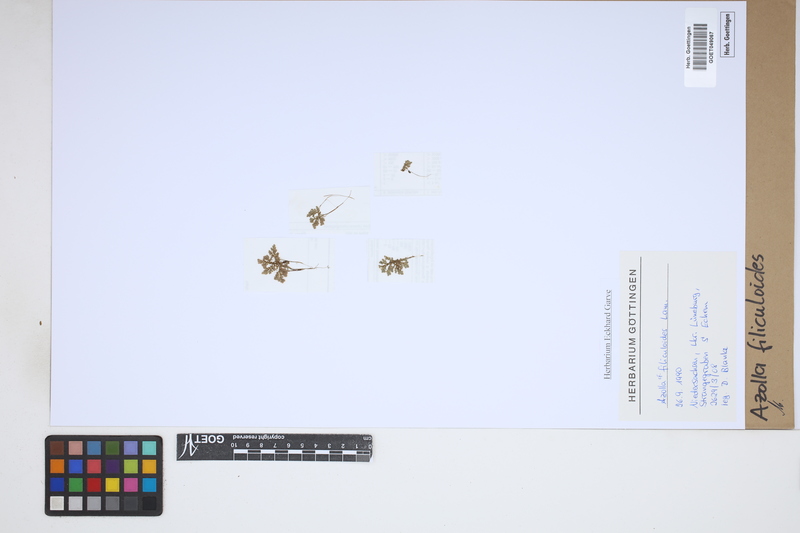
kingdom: Plantae
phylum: Tracheophyta
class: Polypodiopsida
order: Salviniales
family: Salviniaceae
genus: Azolla
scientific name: Azolla filiculoides
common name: Water fern
